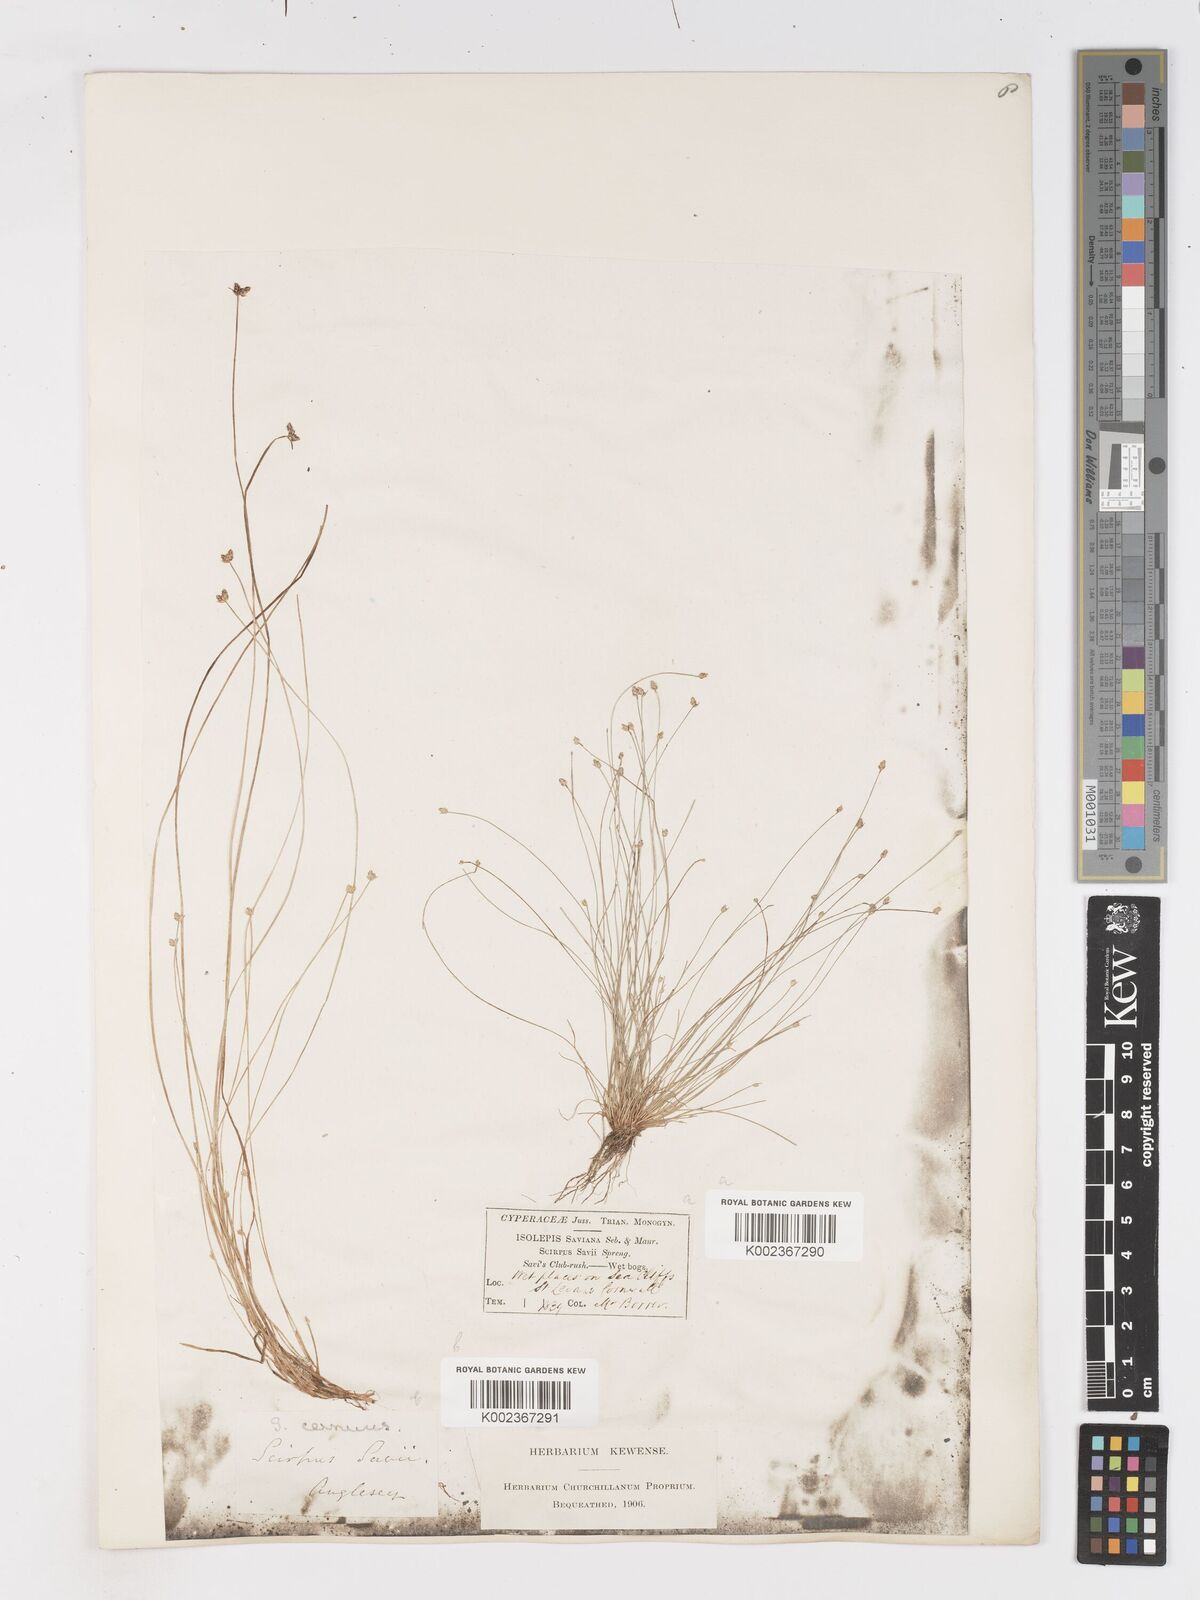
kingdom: Plantae
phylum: Tracheophyta
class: Liliopsida
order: Poales
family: Cyperaceae
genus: Isolepis
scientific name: Isolepis cernua
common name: Slender club-rush
